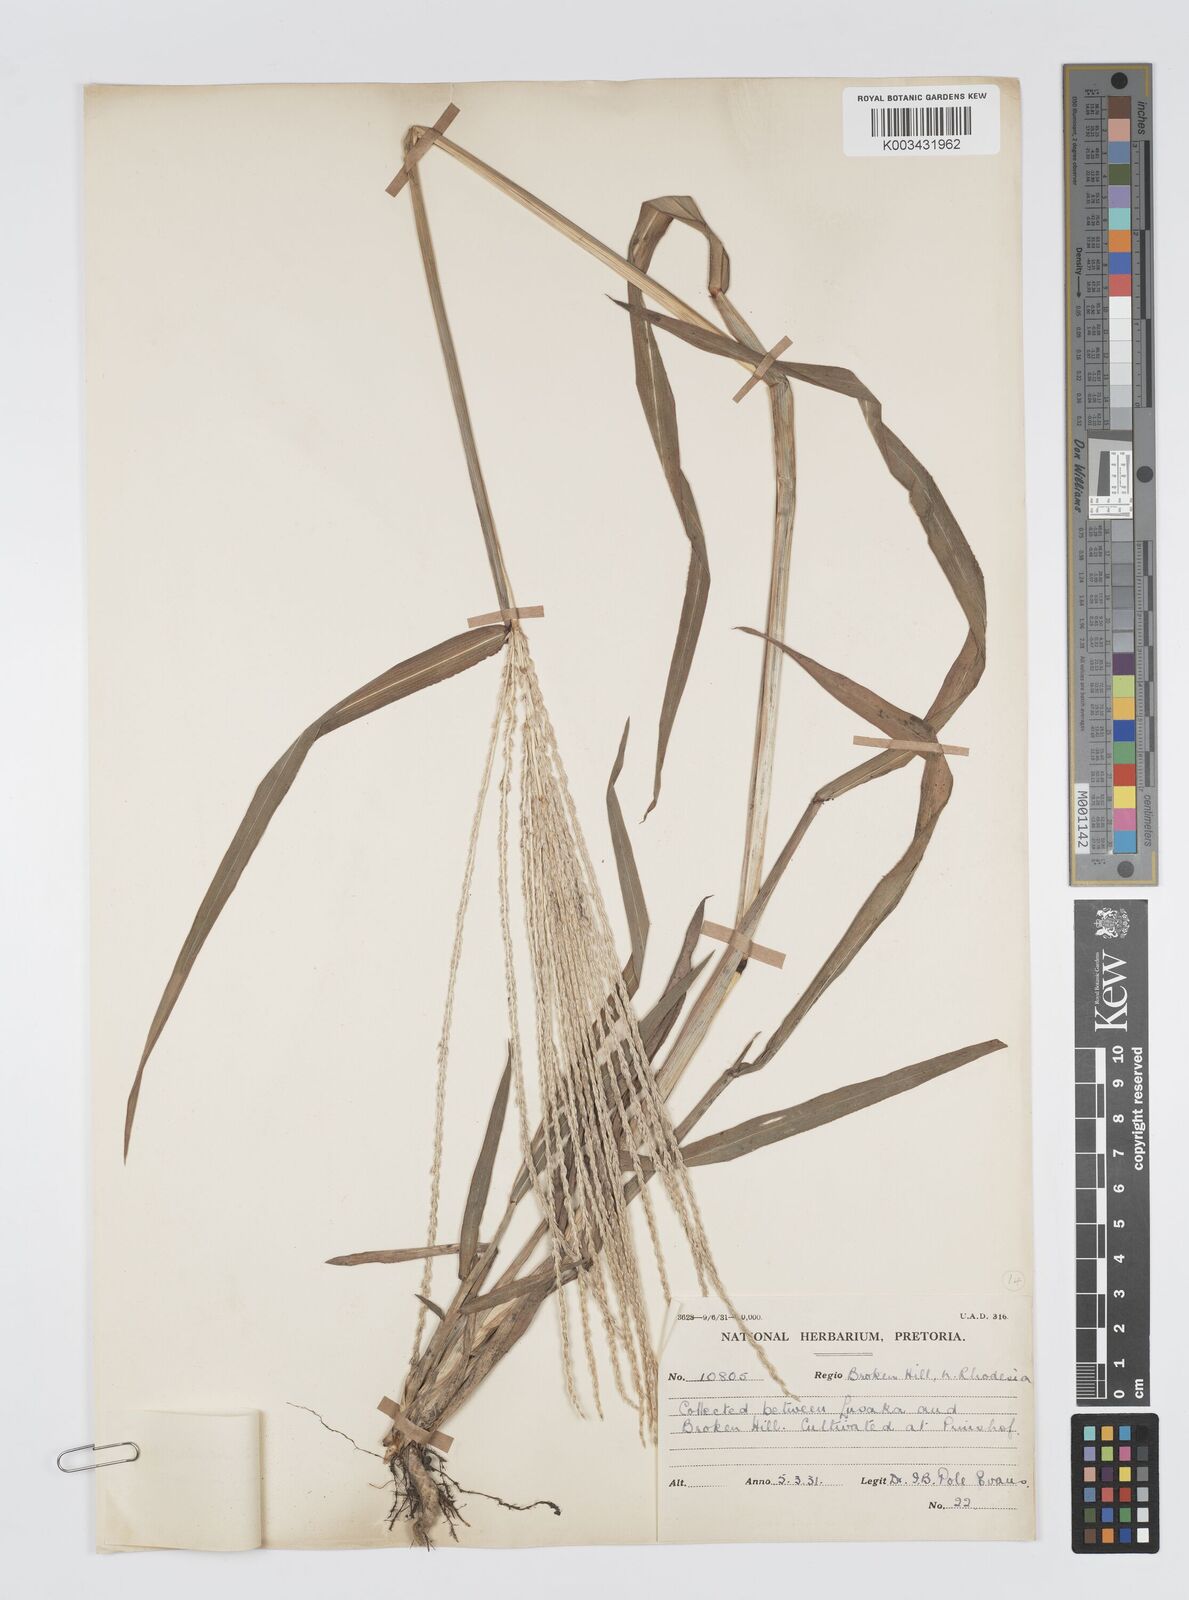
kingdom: Plantae
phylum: Tracheophyta
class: Liliopsida
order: Poales
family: Poaceae
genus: Digitaria
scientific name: Digitaria milanjiana
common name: Madagascar crabgrass
